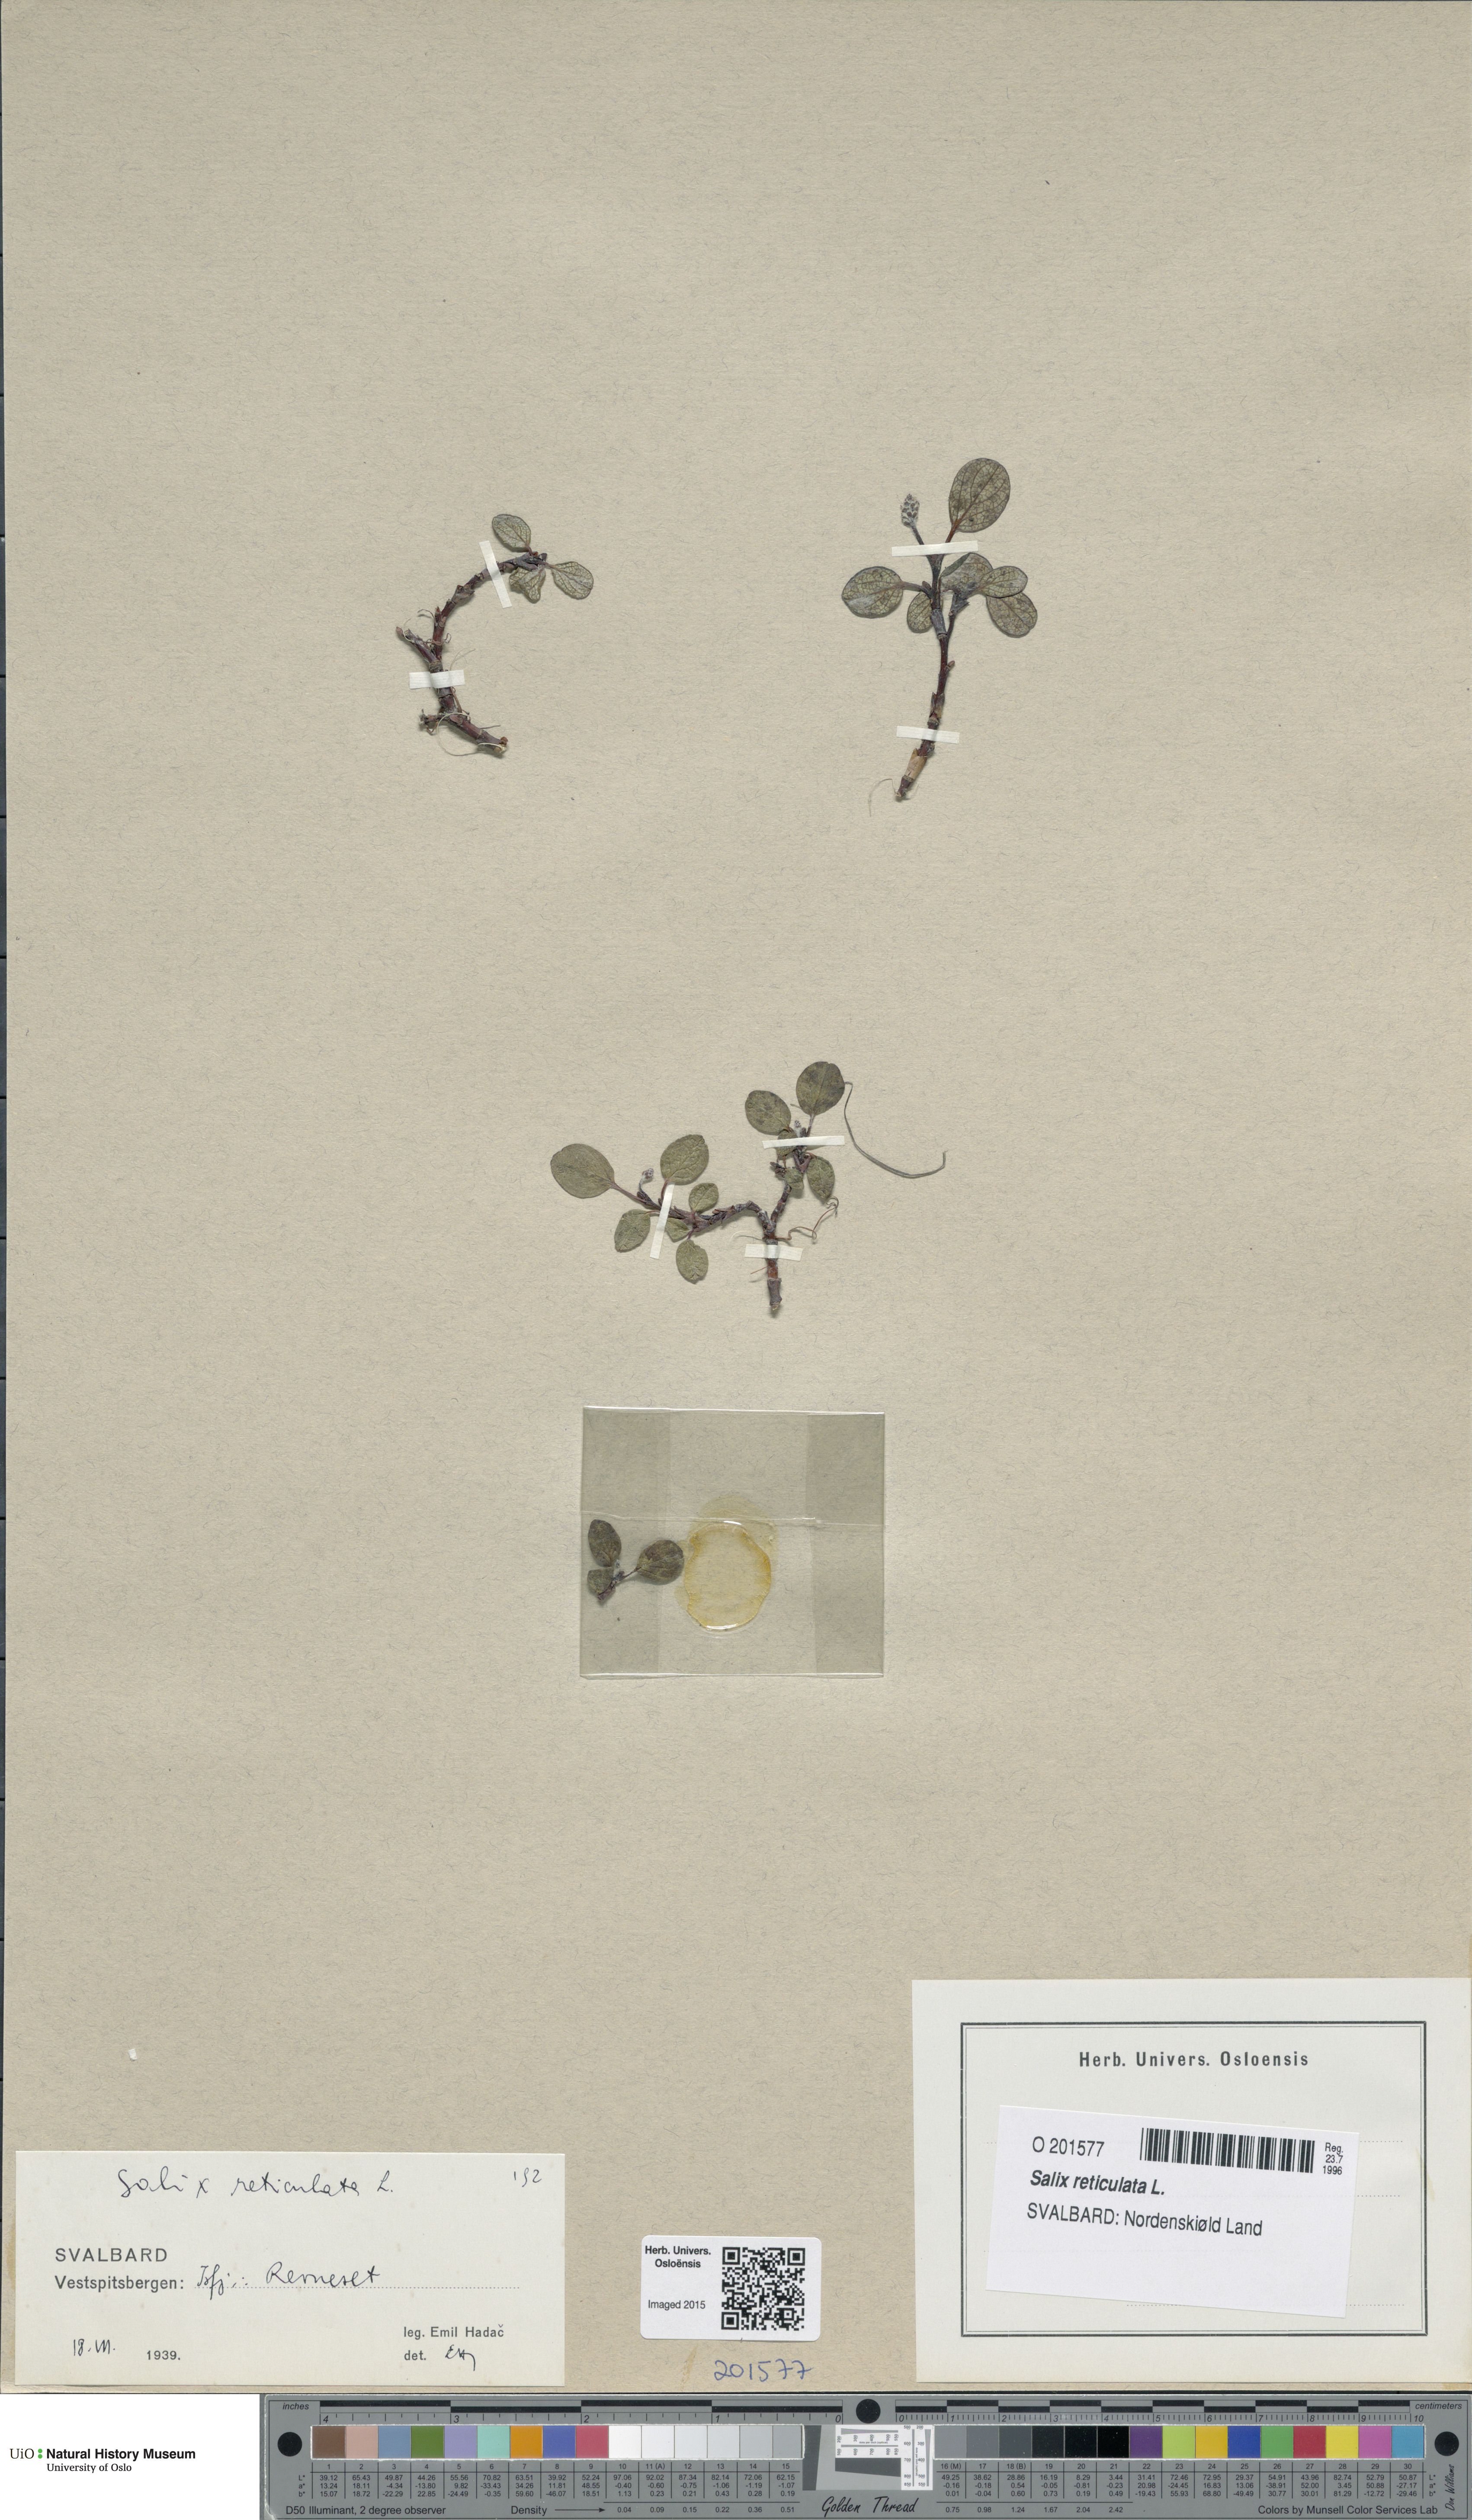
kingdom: Plantae
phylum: Tracheophyta
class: Magnoliopsida
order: Malpighiales
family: Salicaceae
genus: Salix
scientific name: Salix reticulata
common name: Net-leaved willow
